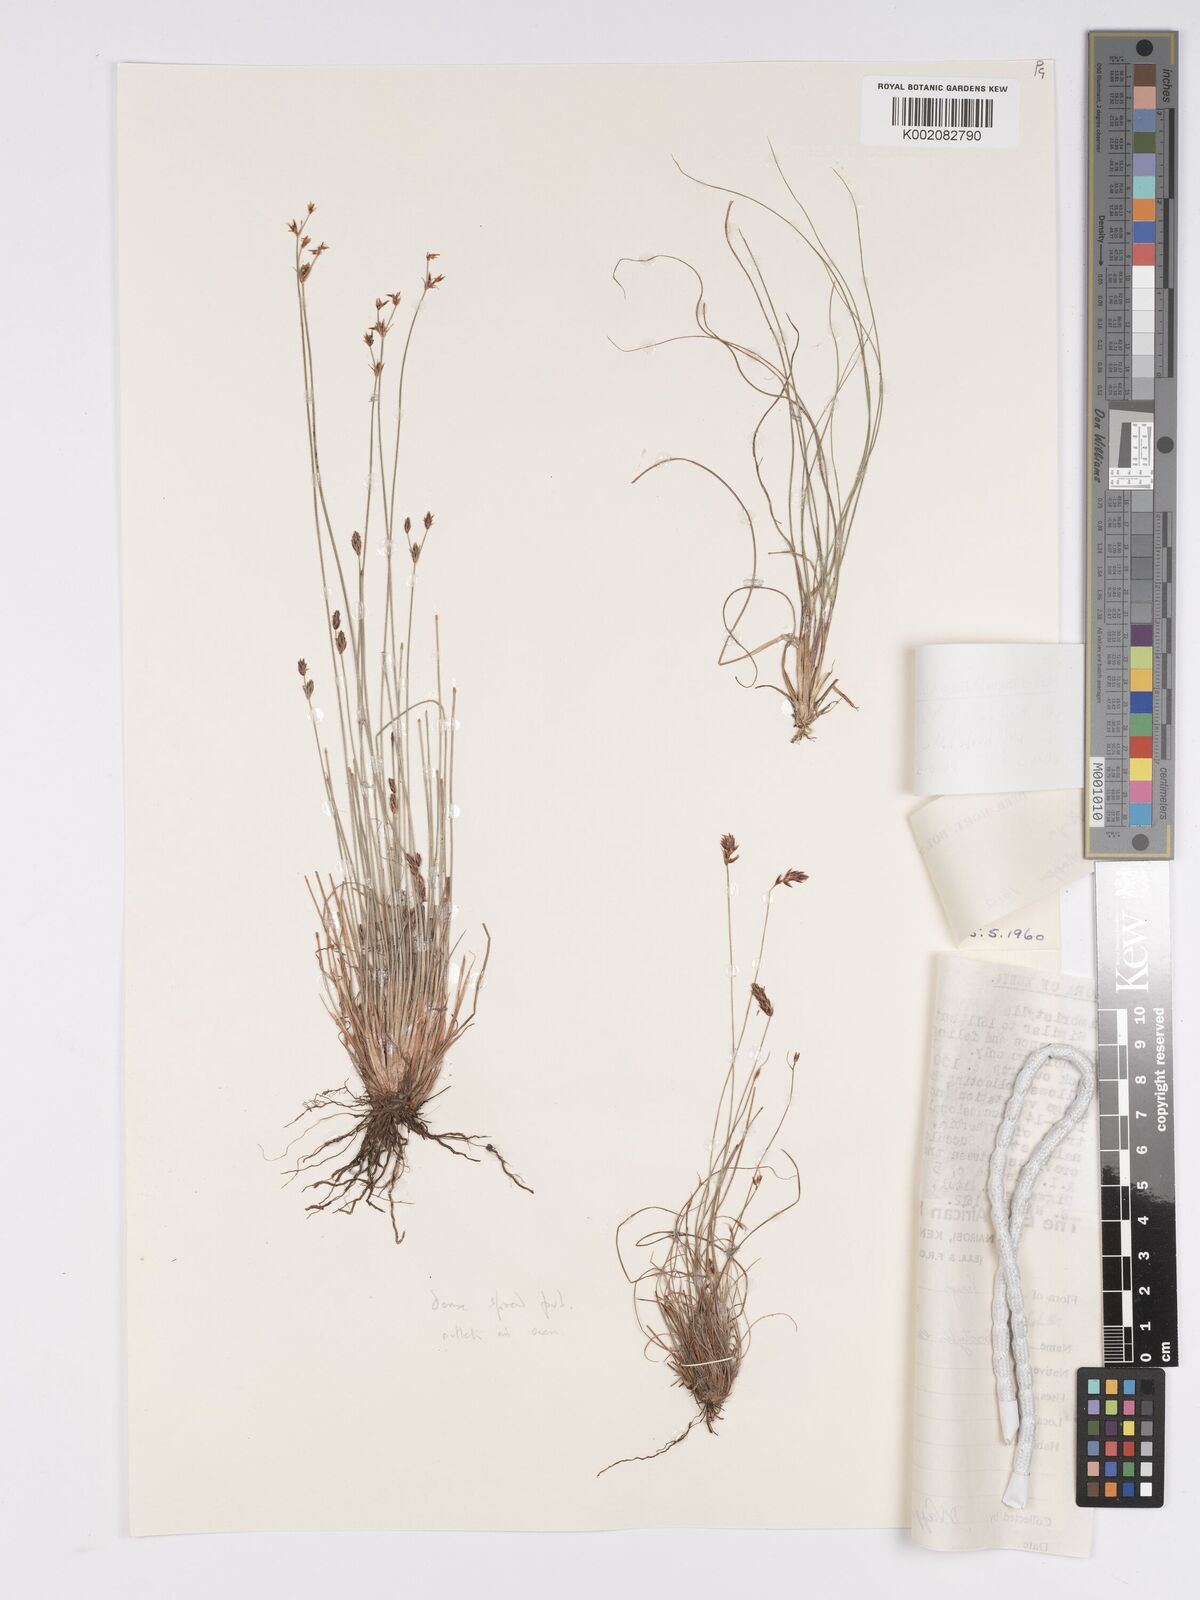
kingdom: Plantae
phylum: Tracheophyta
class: Liliopsida
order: Poales
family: Cyperaceae
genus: Bulbostylis
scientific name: Bulbostylis hispidula
